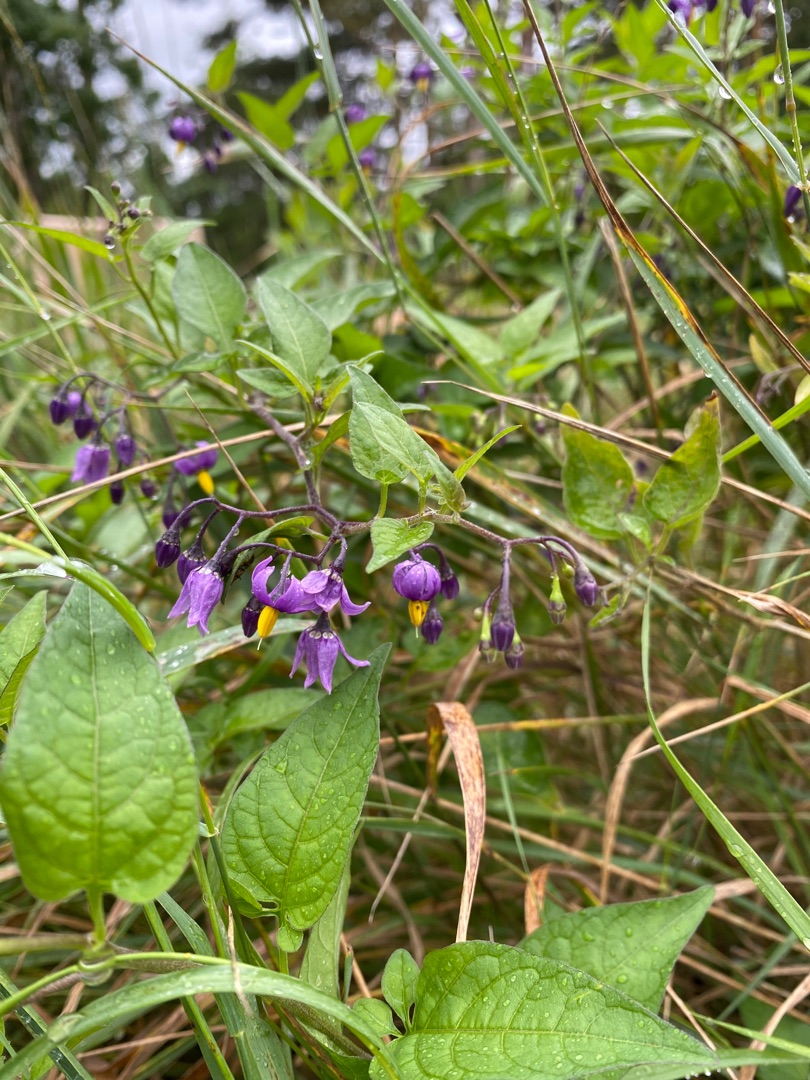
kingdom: Plantae
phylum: Tracheophyta
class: Magnoliopsida
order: Solanales
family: Solanaceae
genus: Solanum
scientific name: Solanum dulcamara
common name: Bittersød natskygge
